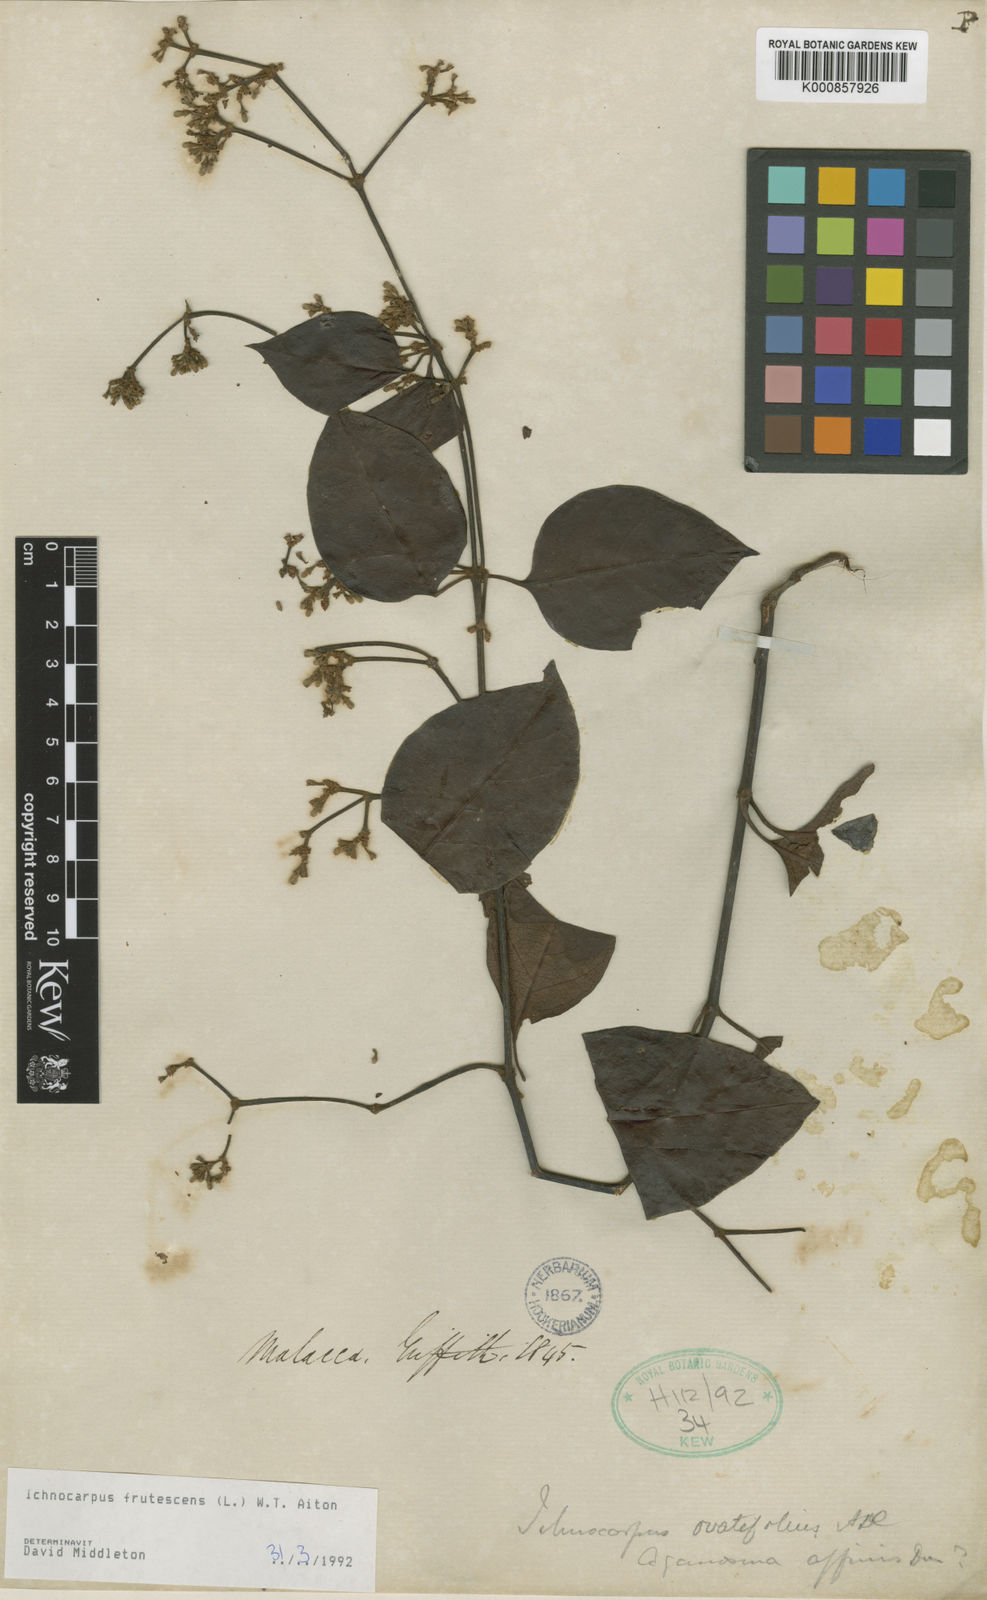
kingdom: Plantae
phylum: Tracheophyta
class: Magnoliopsida
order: Gentianales
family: Apocynaceae
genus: Ichnocarpus
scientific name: Ichnocarpus frutescens
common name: Ichnocarpus
